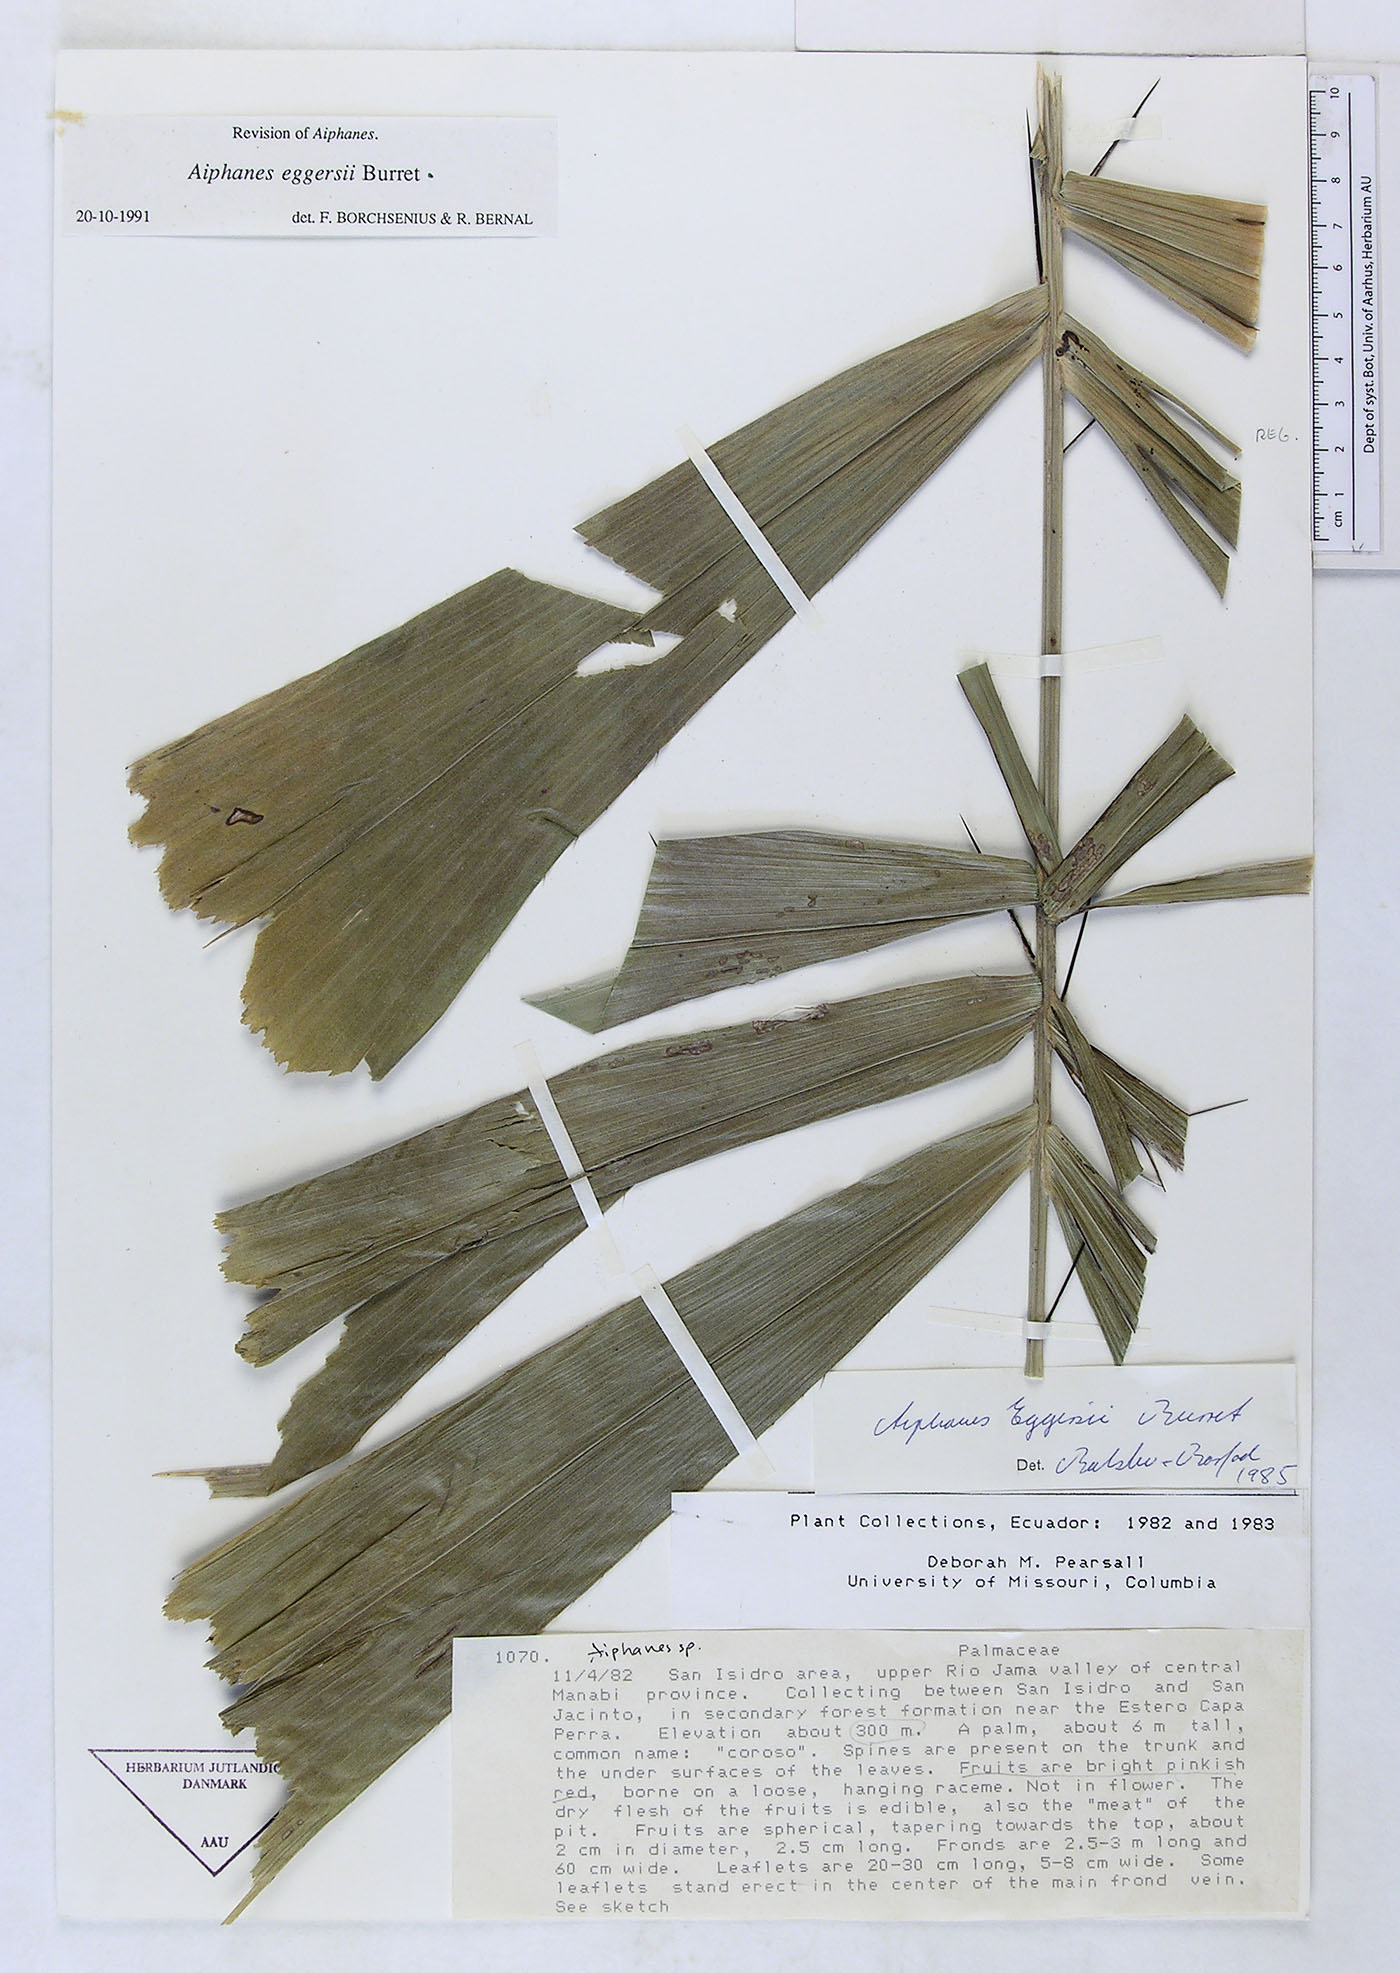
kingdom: Plantae
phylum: Tracheophyta
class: Liliopsida
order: Arecales
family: Arecaceae
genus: Aiphanes
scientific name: Aiphanes eggersii
